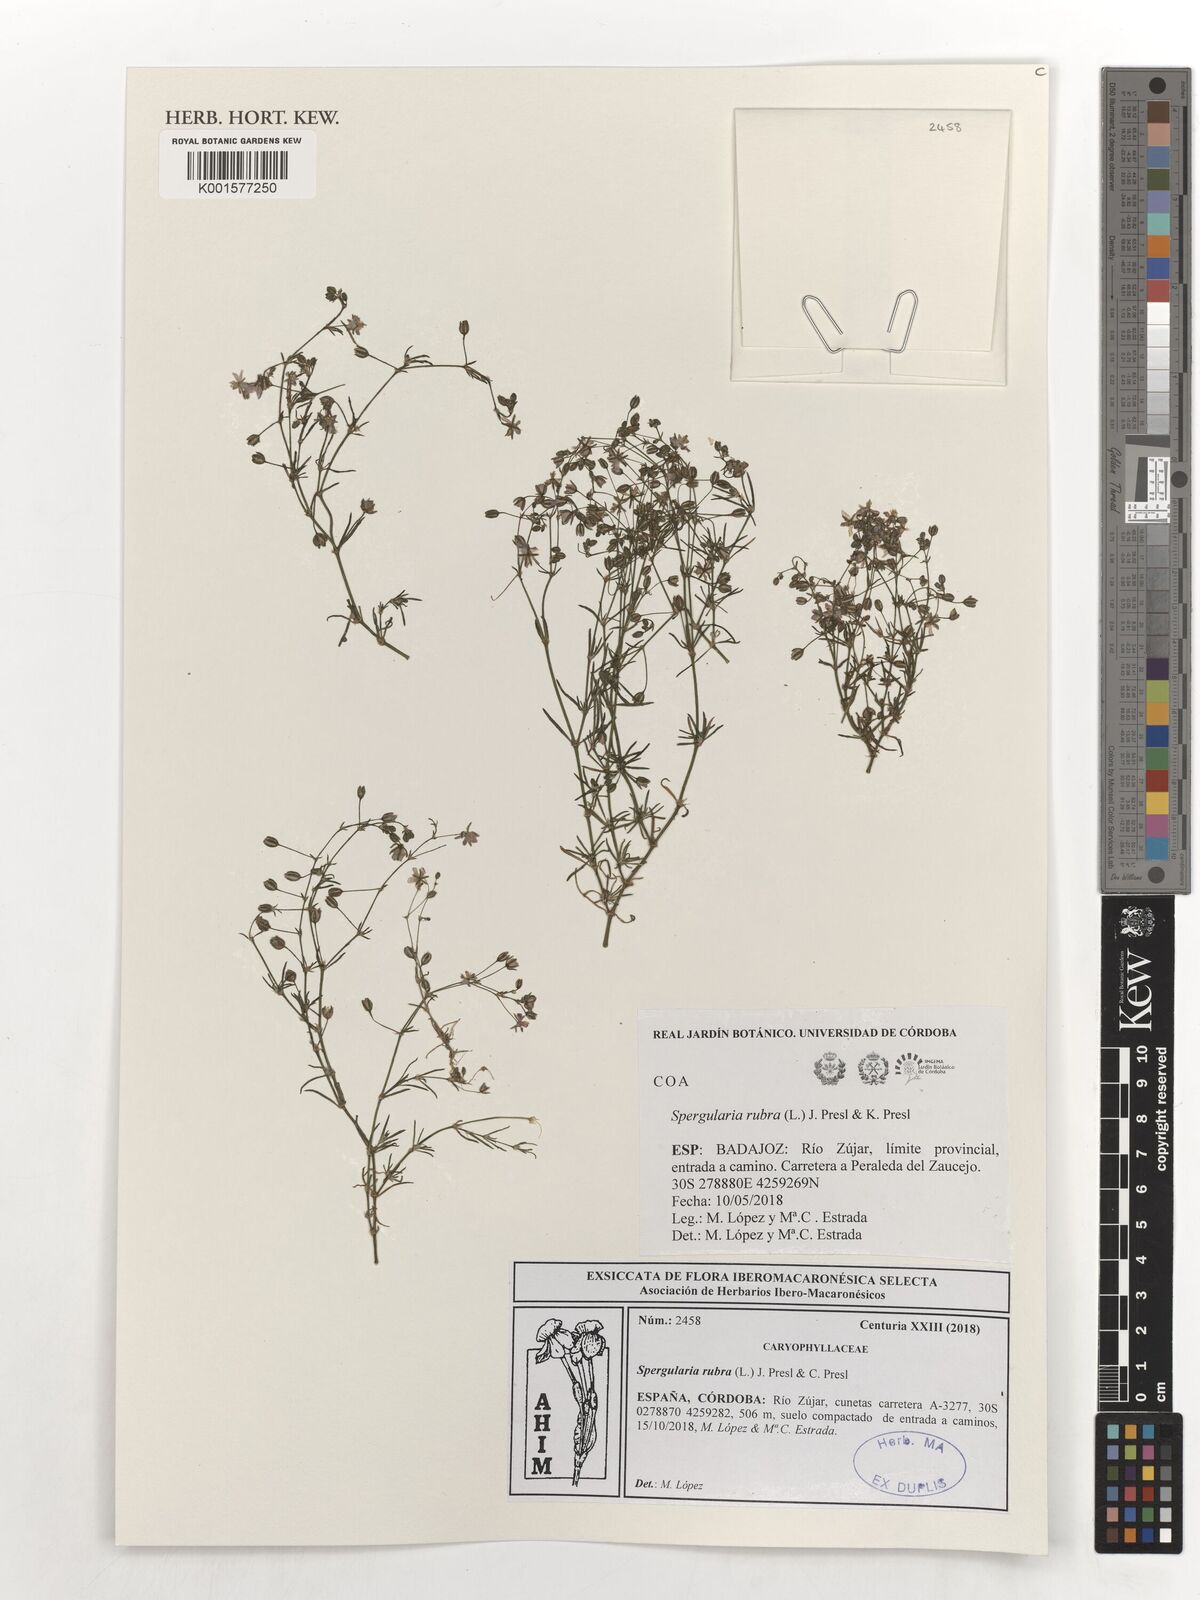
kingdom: Plantae
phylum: Tracheophyta
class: Magnoliopsida
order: Caryophyllales
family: Caryophyllaceae
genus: Spergularia
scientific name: Spergularia rubra
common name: Red sand-spurrey
